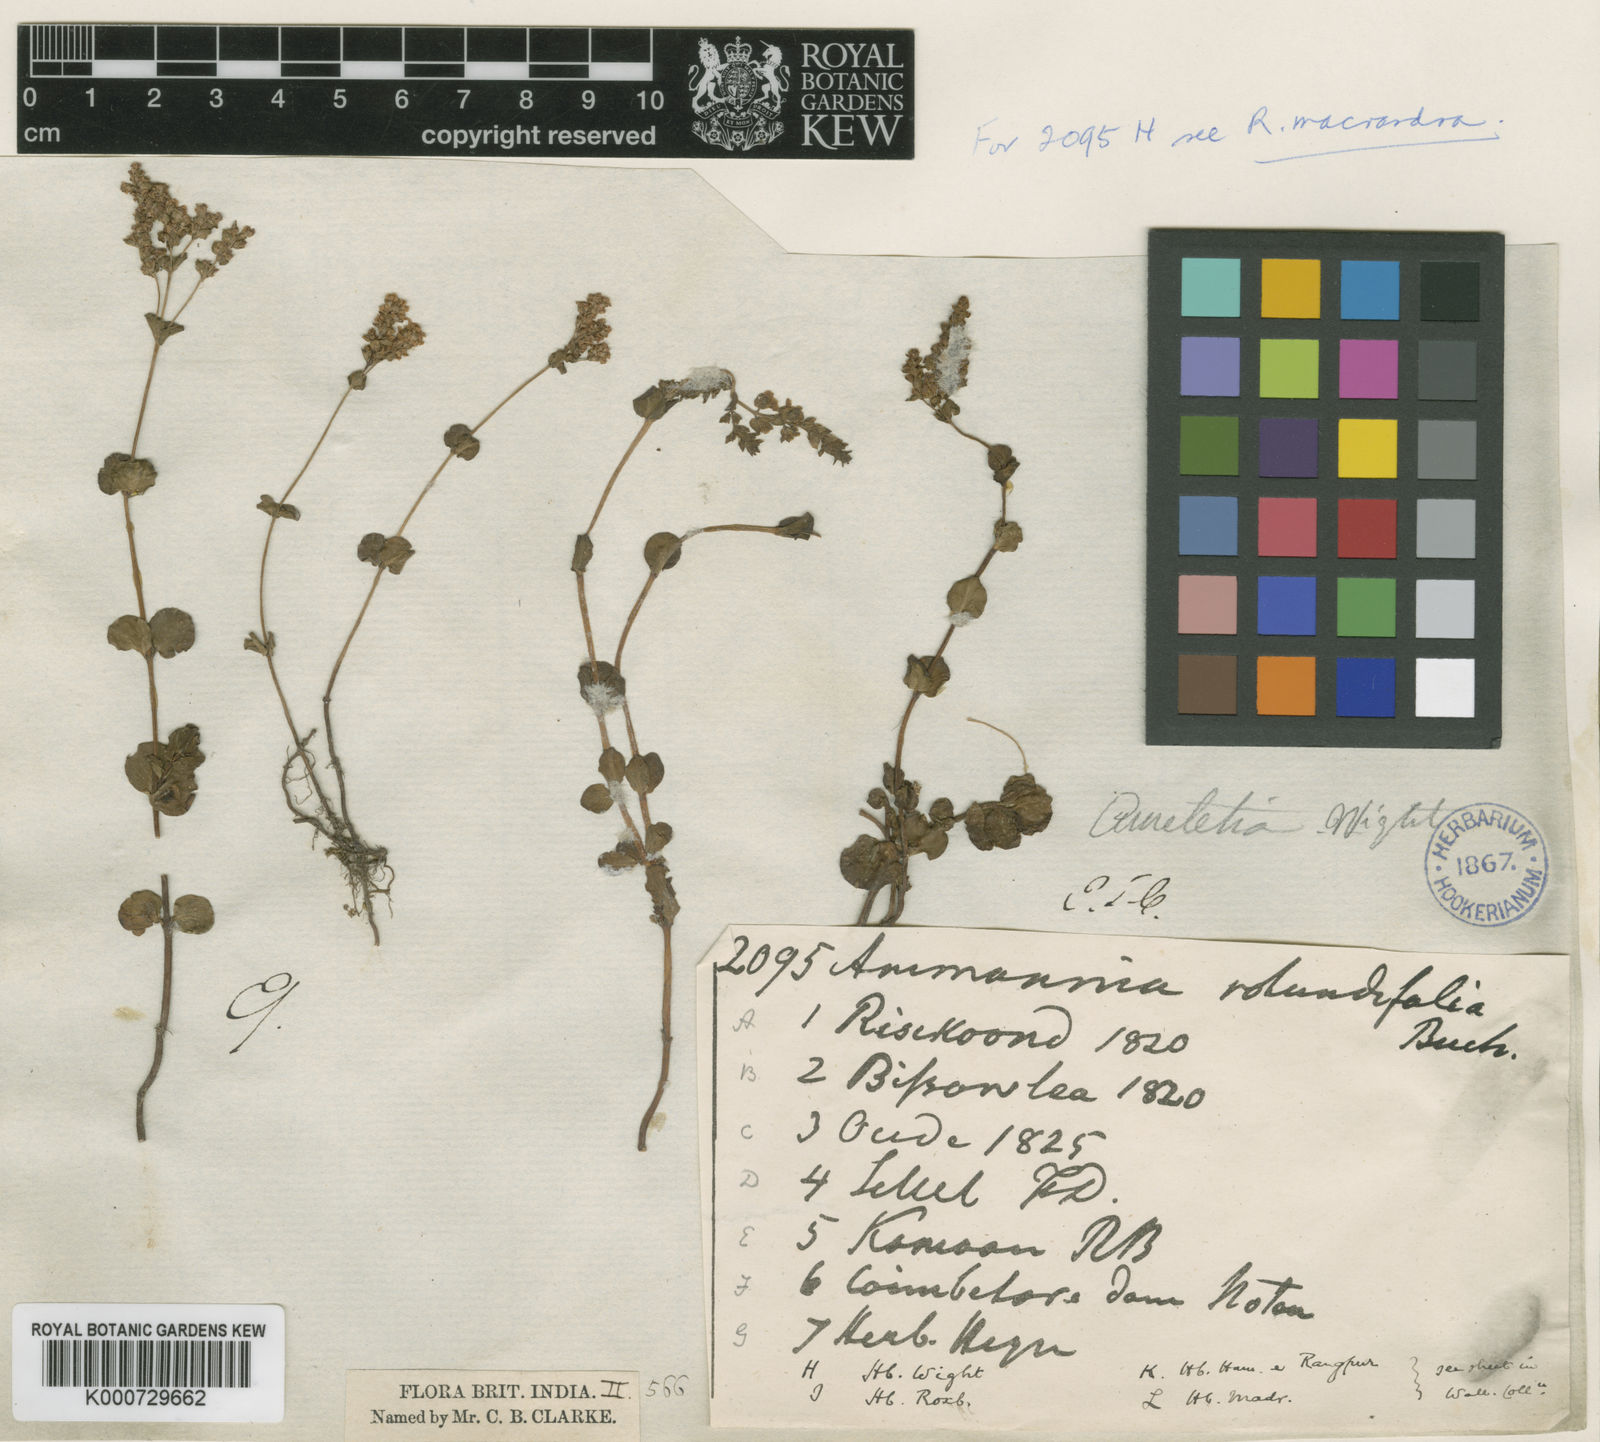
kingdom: Plantae
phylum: Tracheophyta
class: Magnoliopsida
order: Myrtales
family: Lythraceae
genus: Rotala
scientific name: Rotala rotundifolia
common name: Roundleaf toothcup
